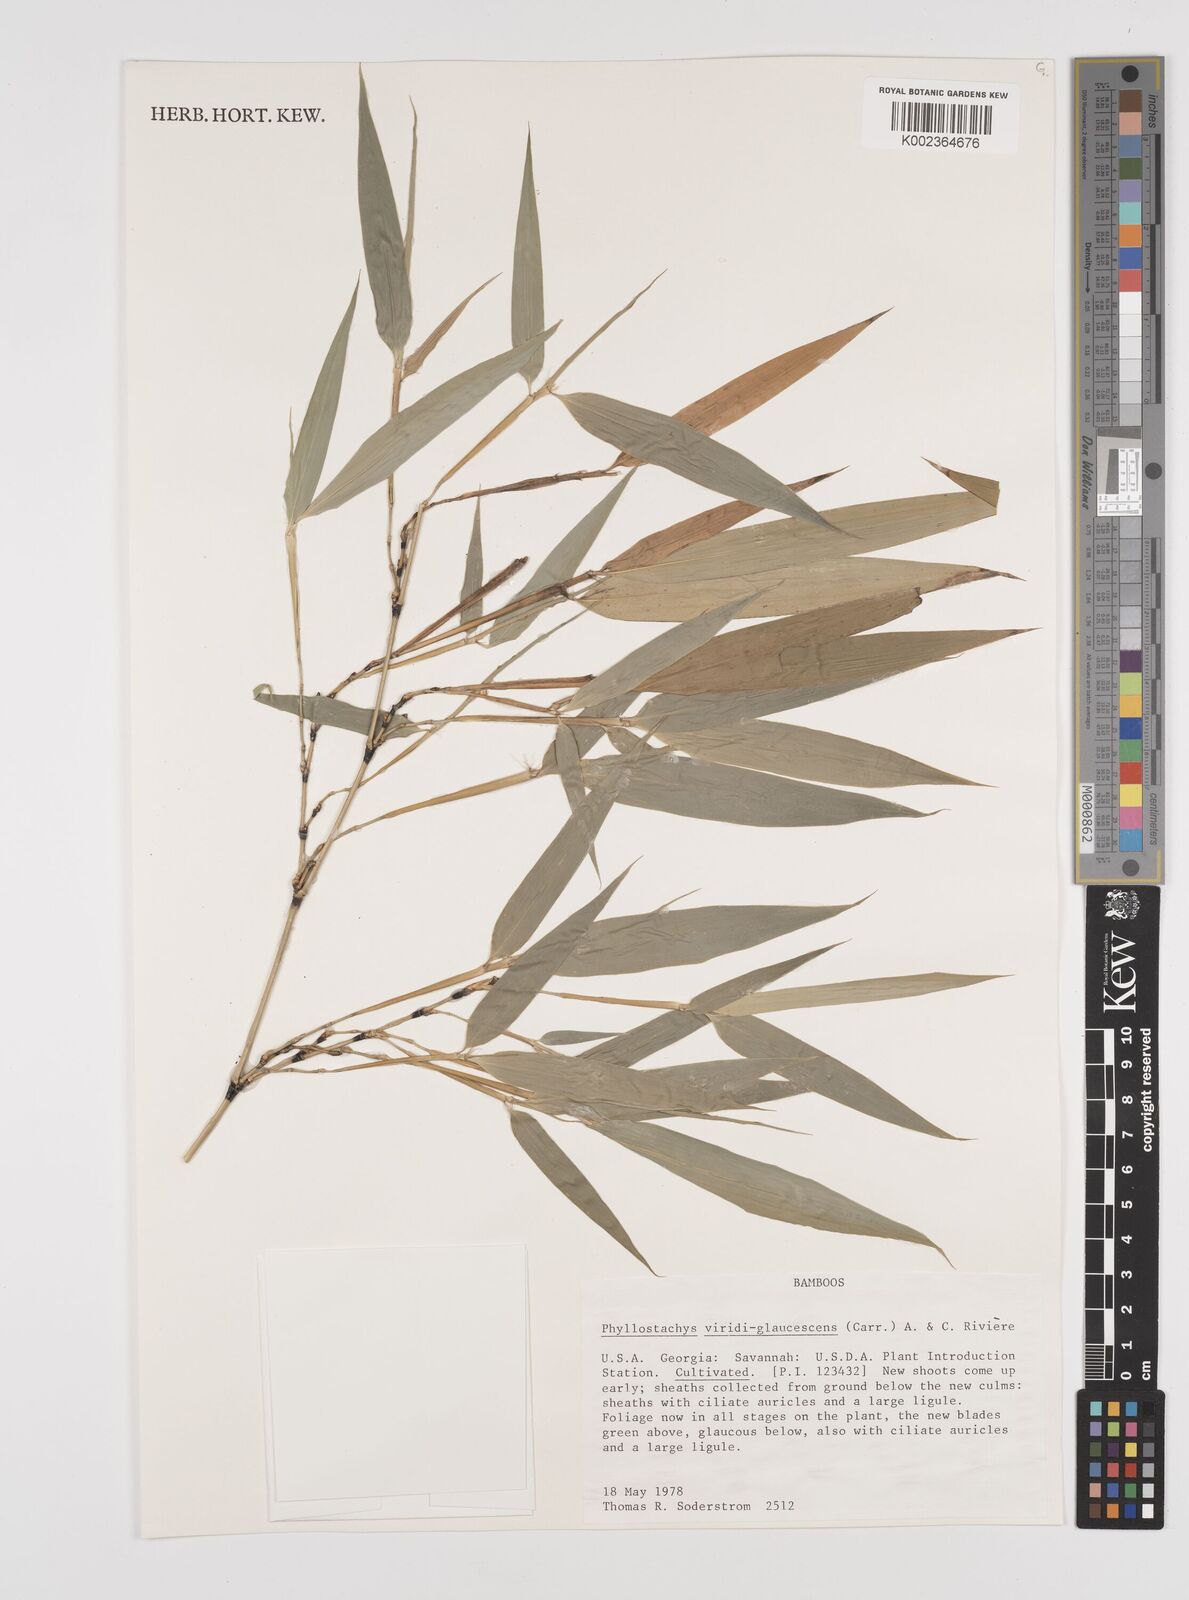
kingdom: Plantae
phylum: Tracheophyta
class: Liliopsida
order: Poales
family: Poaceae
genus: Phyllostachys
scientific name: Phyllostachys viridiglaucescens
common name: Greenwax golden bamboo
